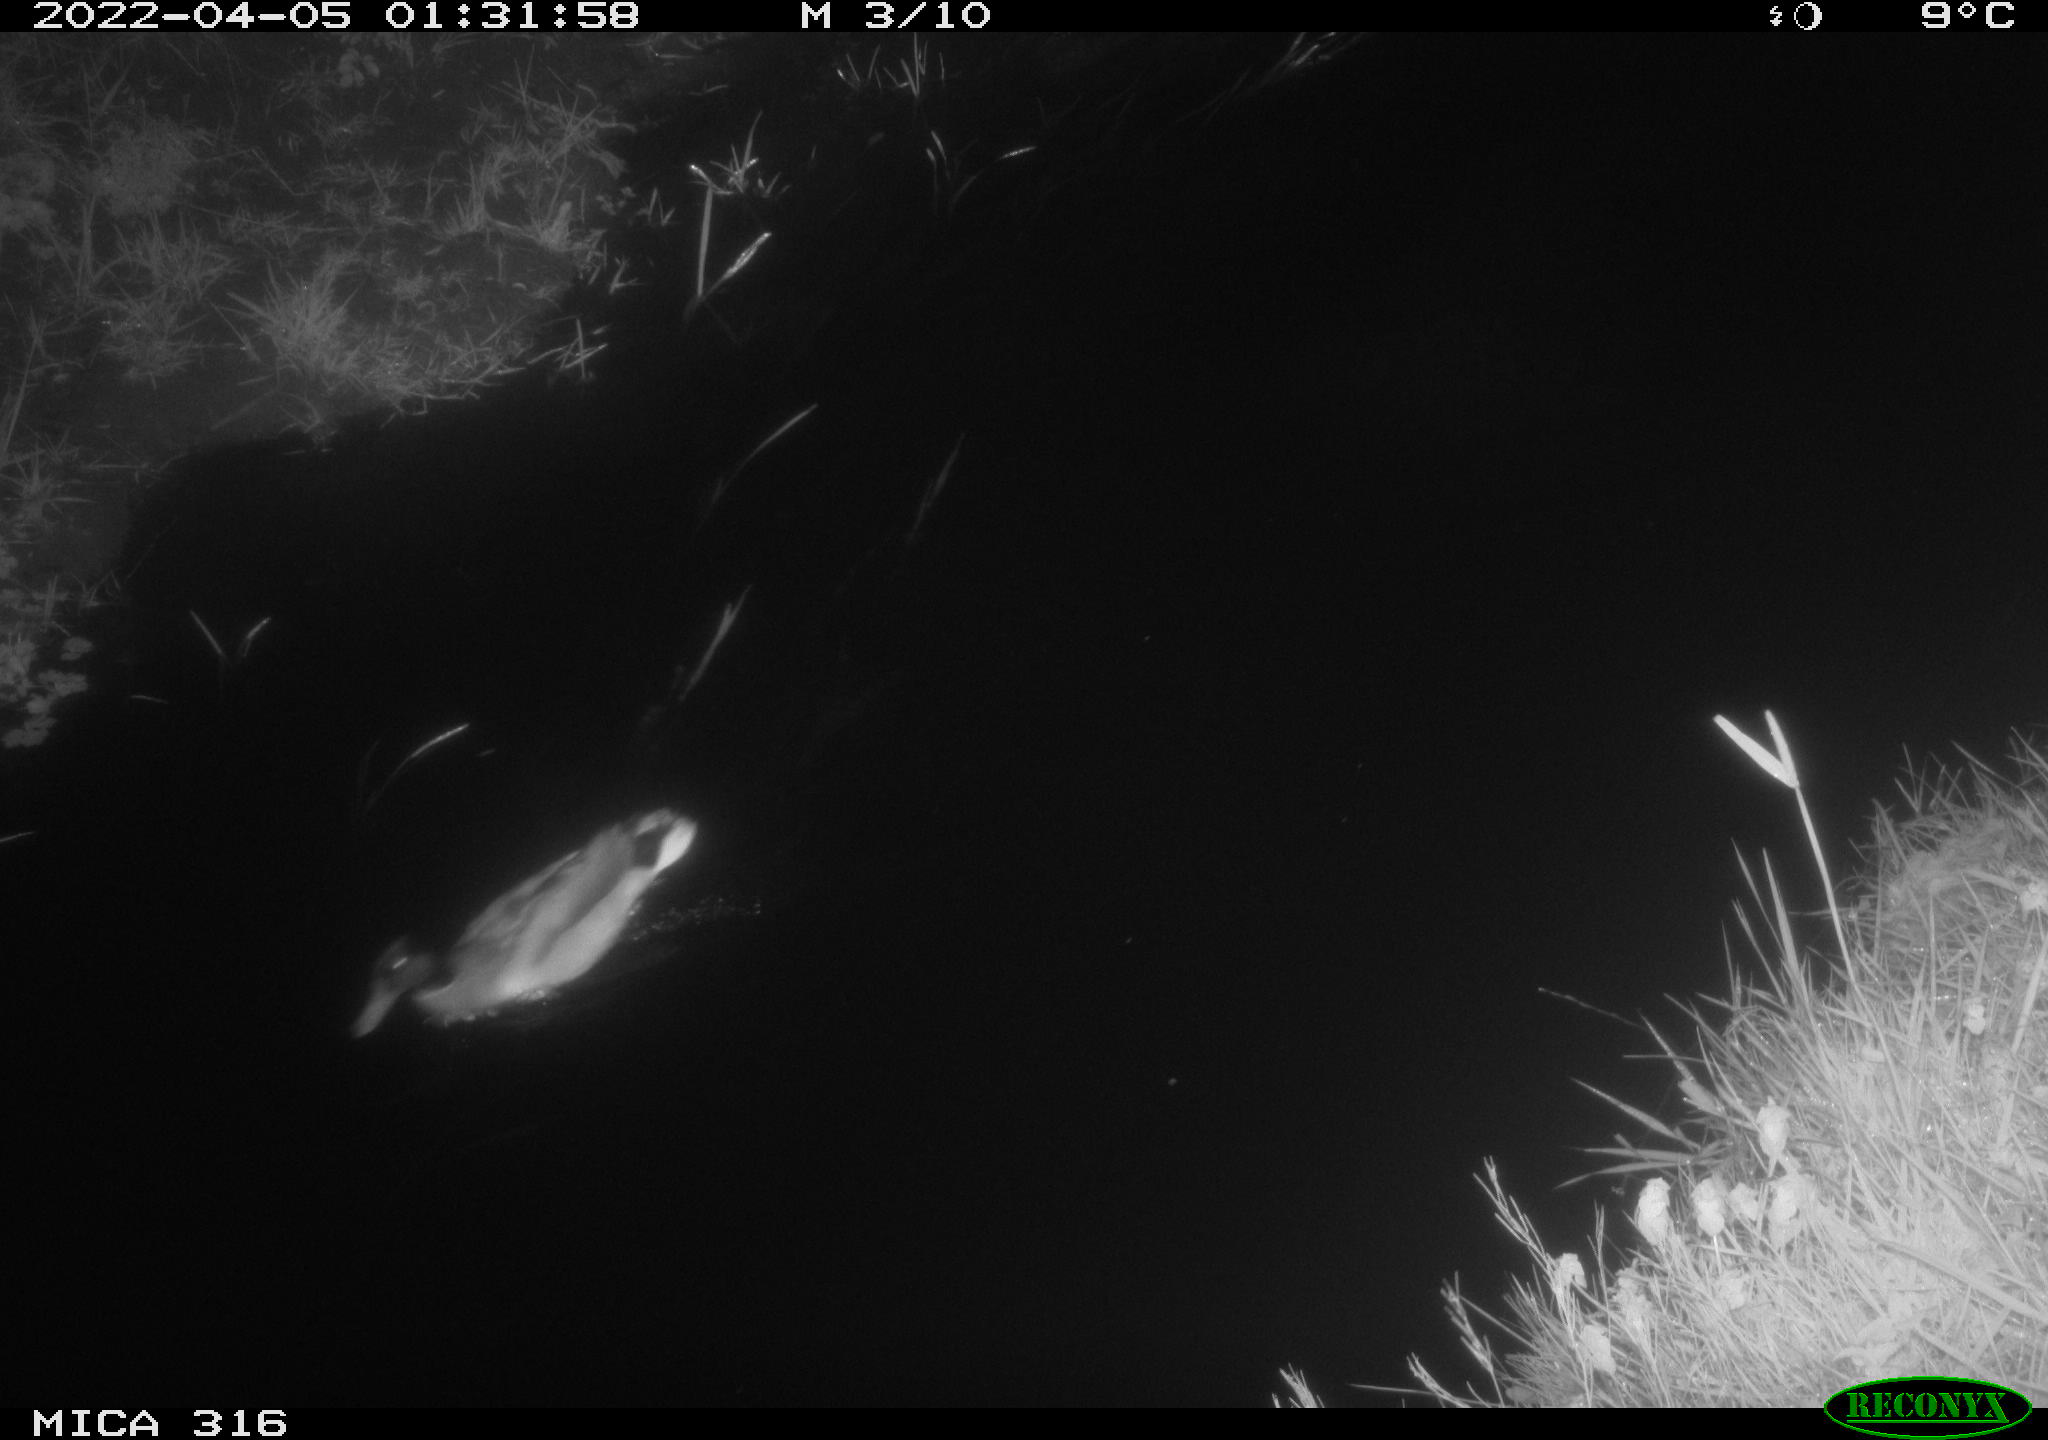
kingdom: Animalia
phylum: Chordata
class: Aves
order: Anseriformes
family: Anatidae
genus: Anas
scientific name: Anas platyrhynchos
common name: Mallard
